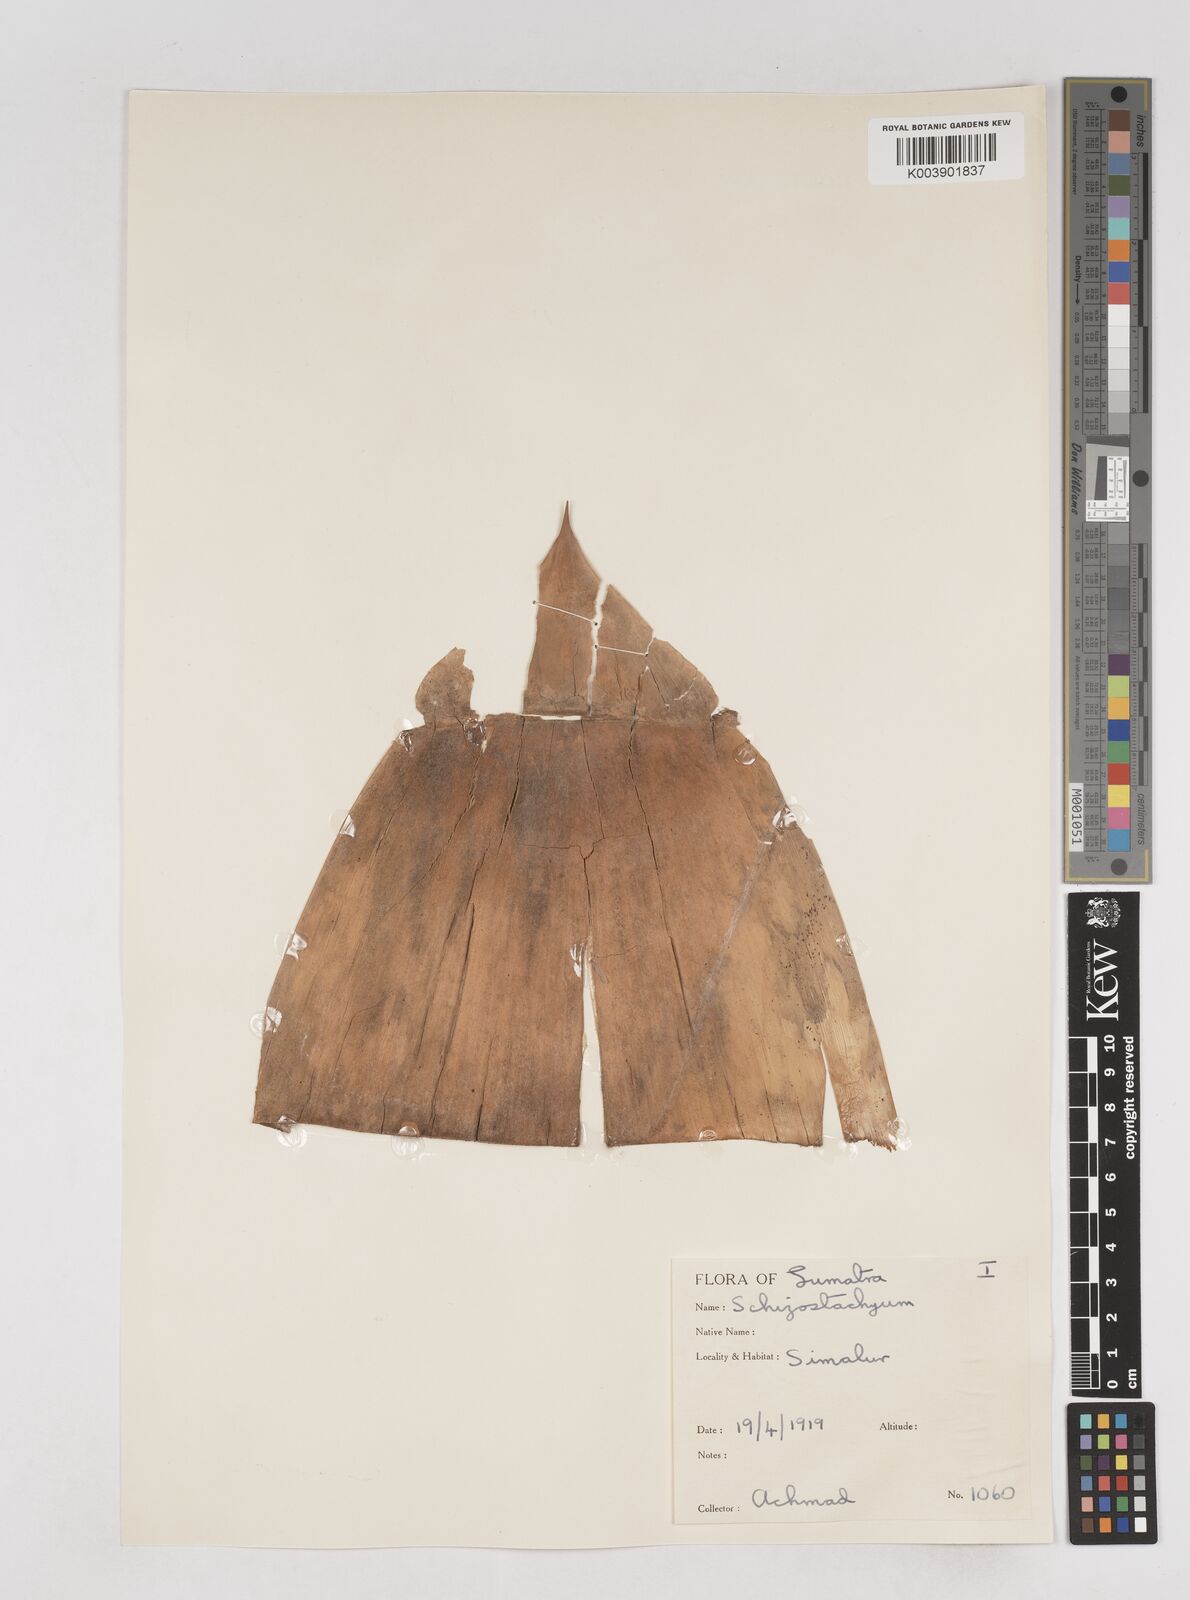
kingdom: Plantae
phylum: Tracheophyta
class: Liliopsida
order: Poales
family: Poaceae
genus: Schizostachyum
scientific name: Schizostachyum brachycladum
